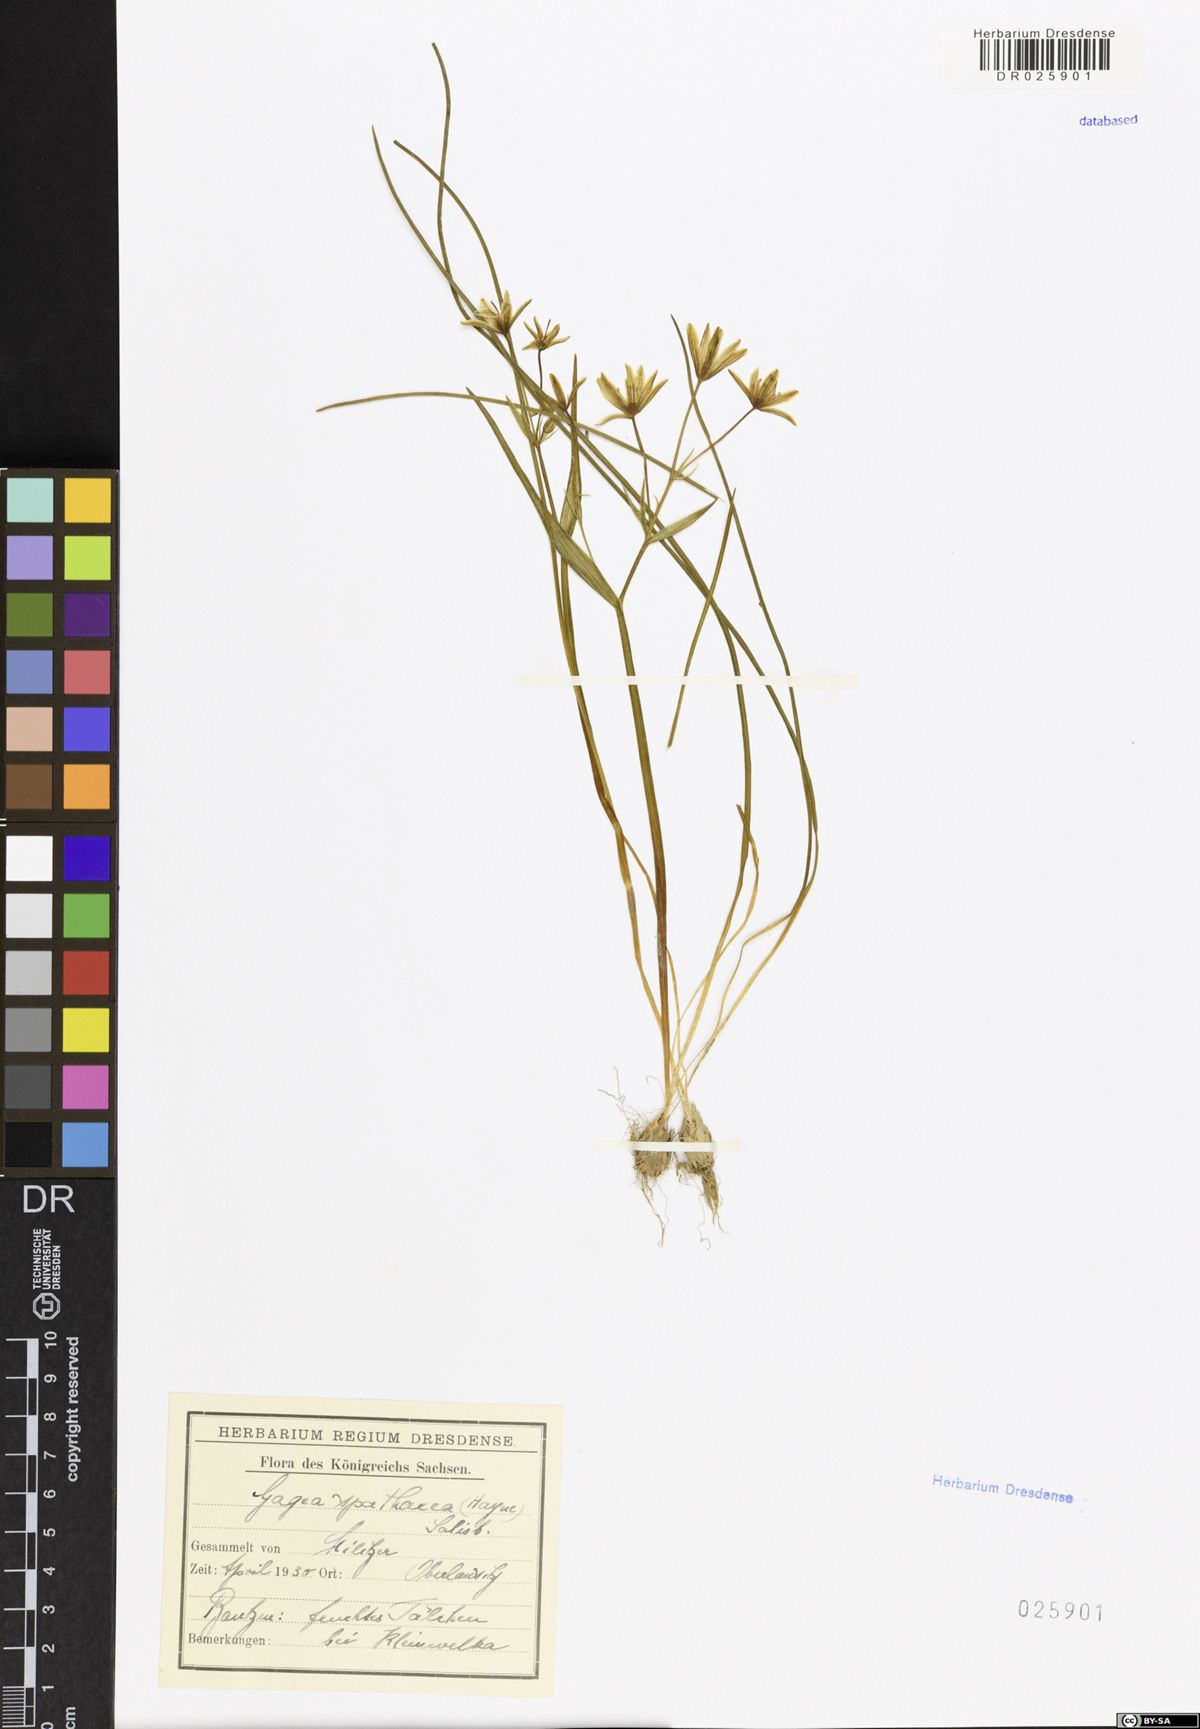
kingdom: Plantae
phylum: Tracheophyta
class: Liliopsida
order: Liliales
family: Liliaceae
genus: Gagea
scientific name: Gagea spathacea
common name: Belgian gagea
